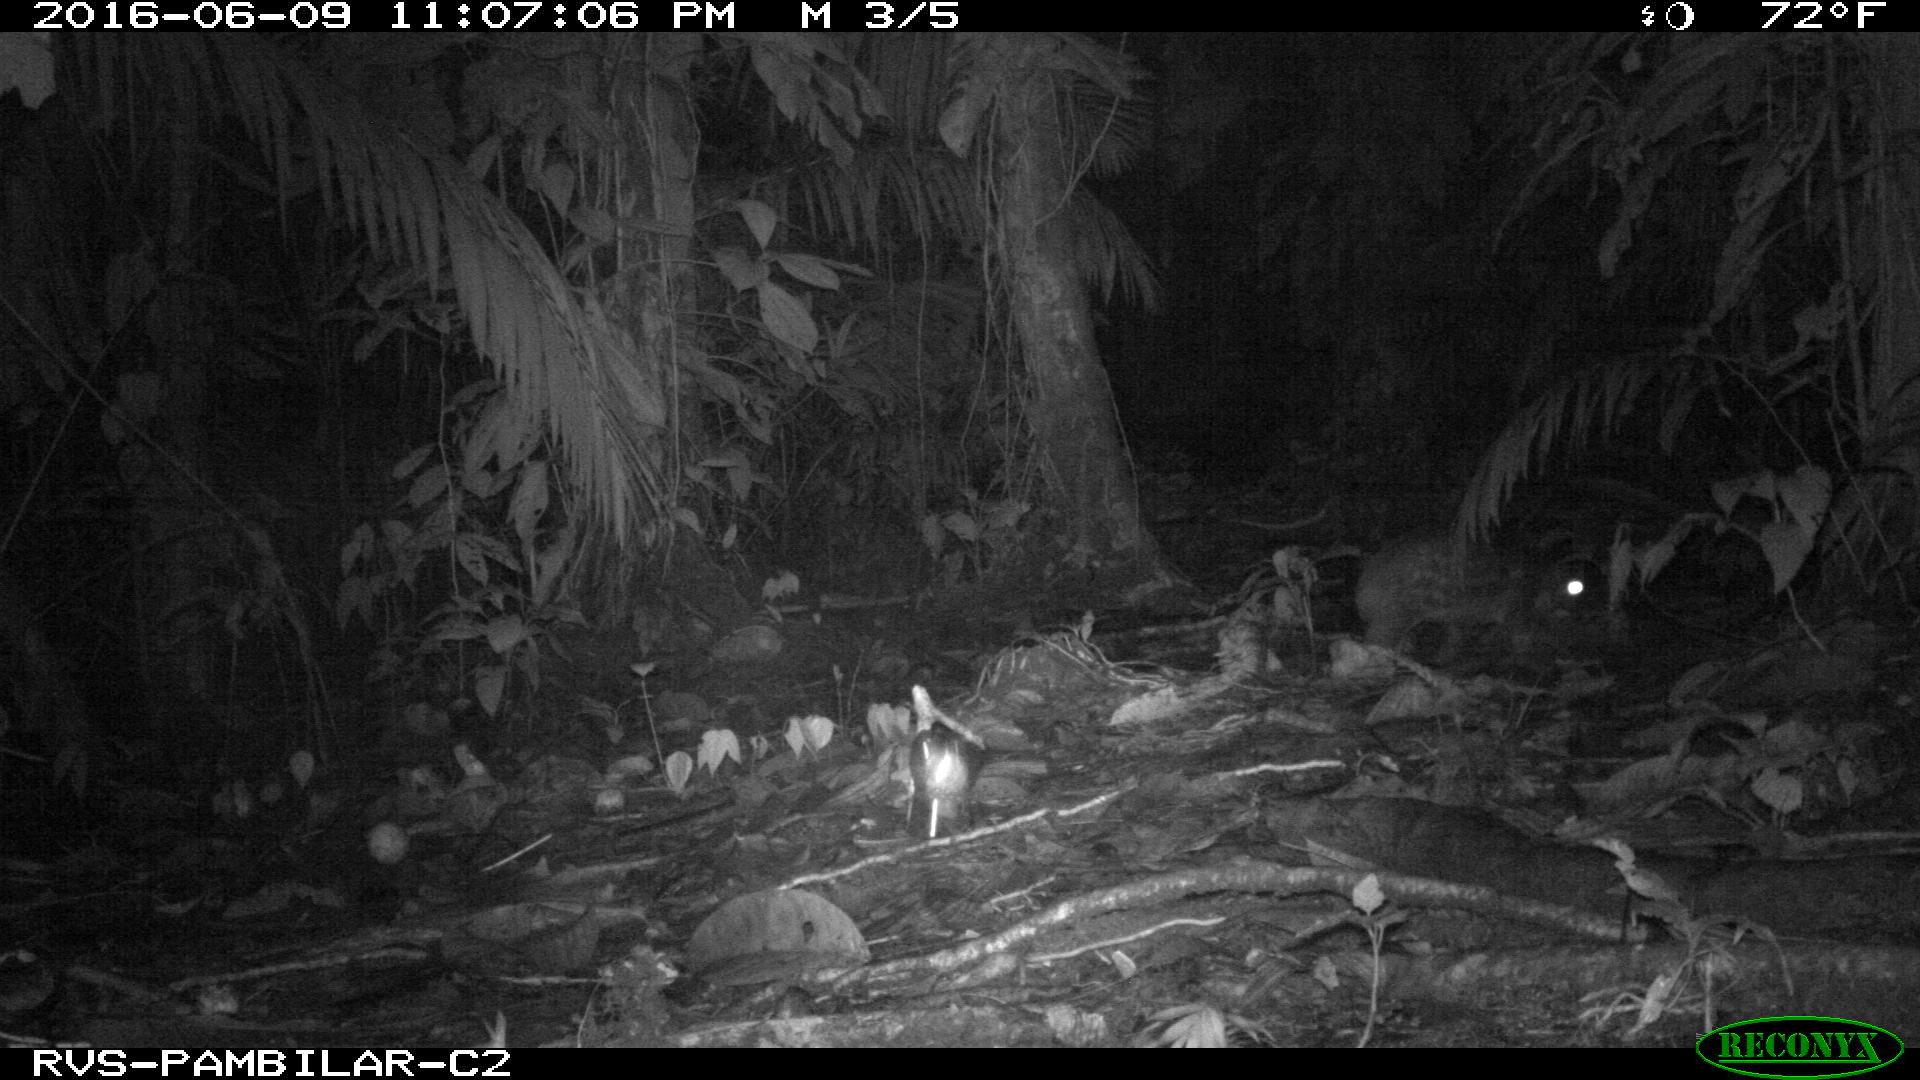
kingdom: Animalia
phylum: Chordata
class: Mammalia
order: Rodentia
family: Cuniculidae
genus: Cuniculus
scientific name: Cuniculus paca
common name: Lowland paca
